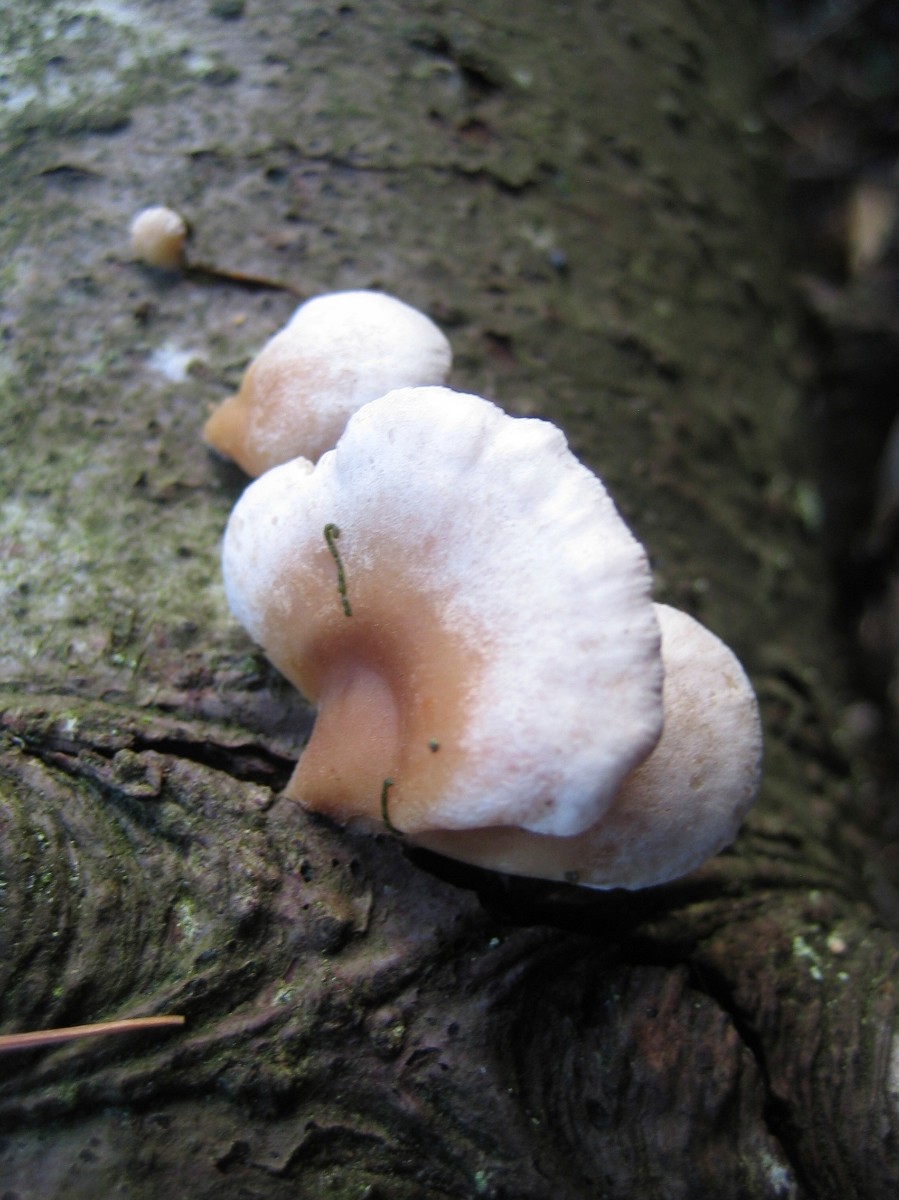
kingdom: Fungi
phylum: Basidiomycota
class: Agaricomycetes
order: Agaricales
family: Mycenaceae
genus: Panellus
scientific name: Panellus mitis
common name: mild epaulethat
